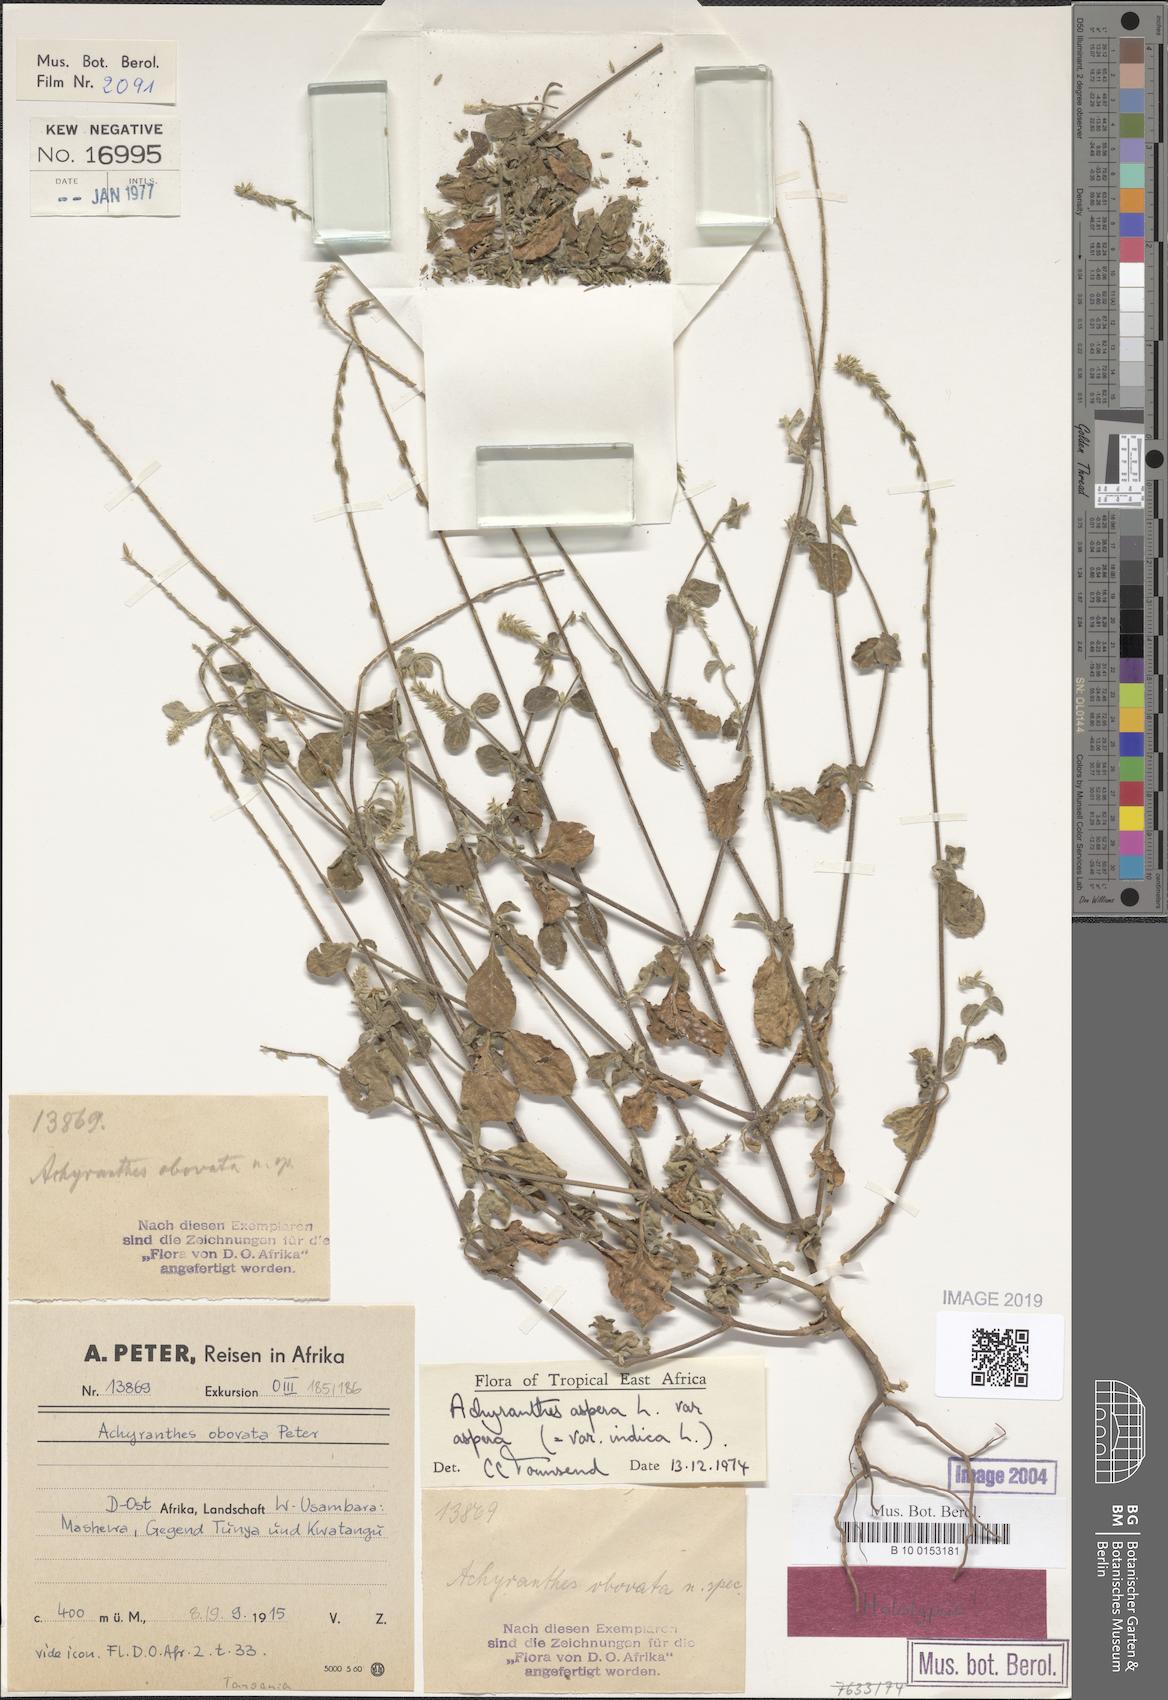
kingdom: Plantae
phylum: Tracheophyta
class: Magnoliopsida
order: Caryophyllales
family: Amaranthaceae
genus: Achyranthes
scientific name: Achyranthes aspera
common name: Devil's horsewhip
